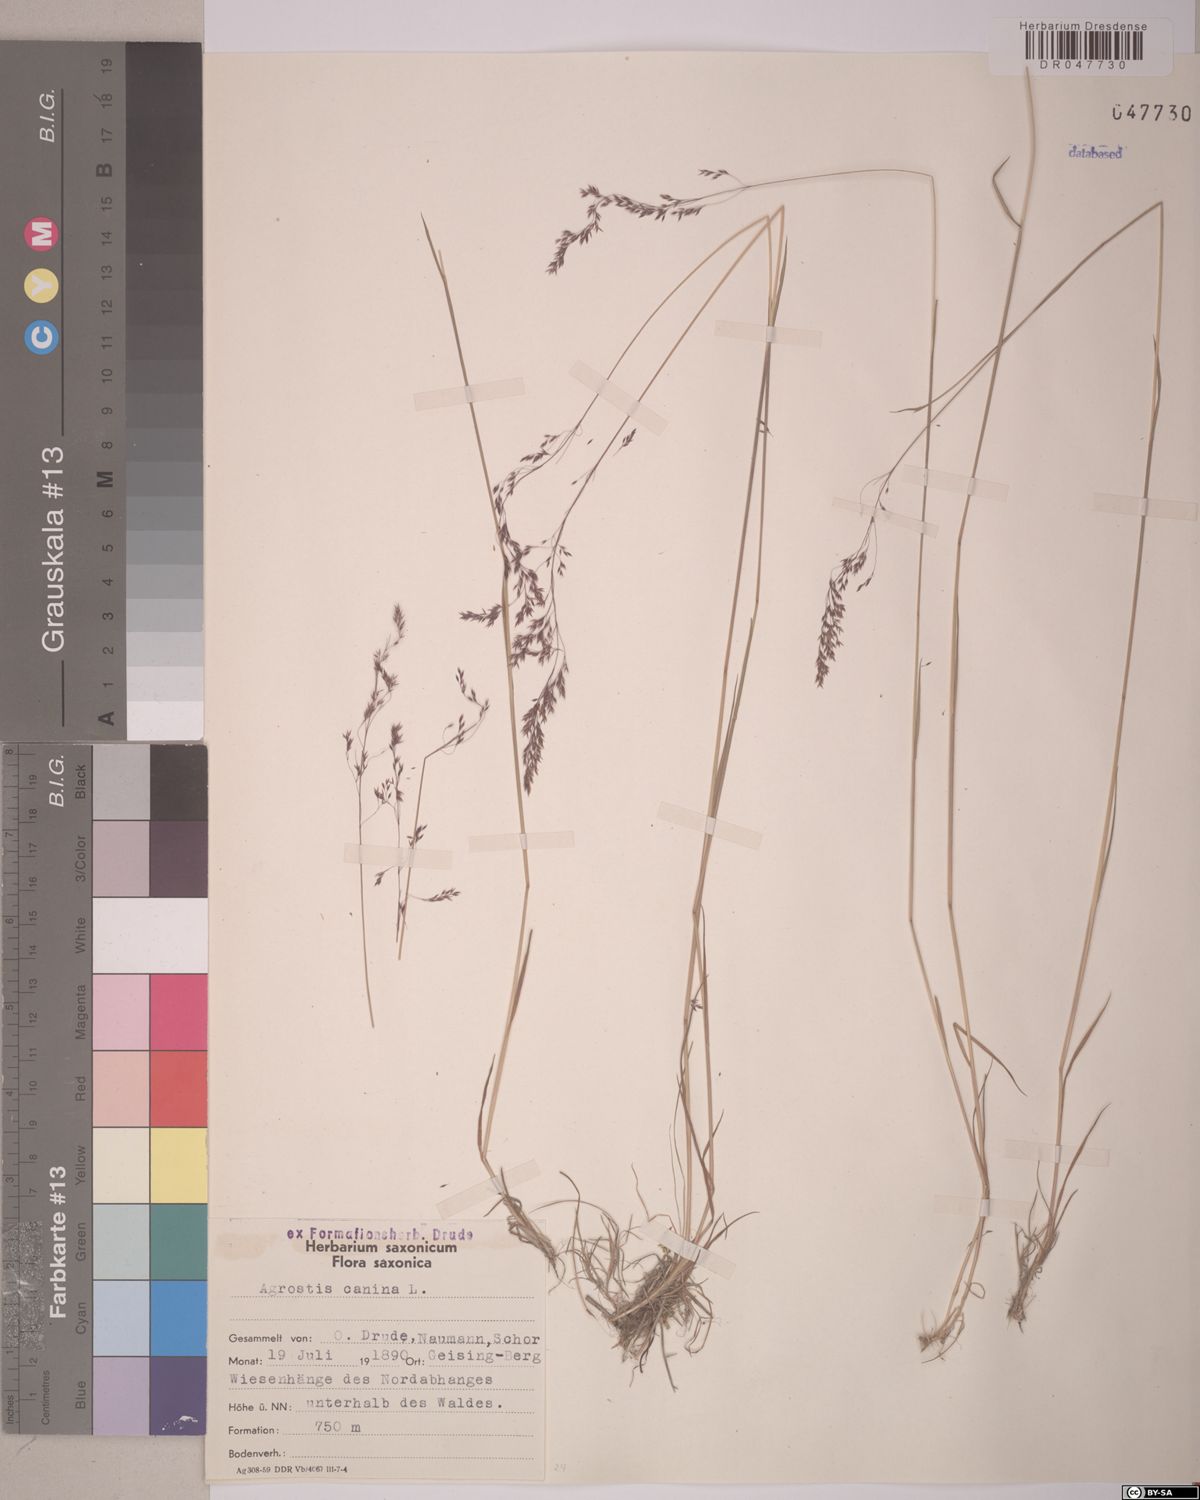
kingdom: Plantae
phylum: Tracheophyta
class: Liliopsida
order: Poales
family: Poaceae
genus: Agrostis
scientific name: Agrostis canina
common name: Velvet bent
